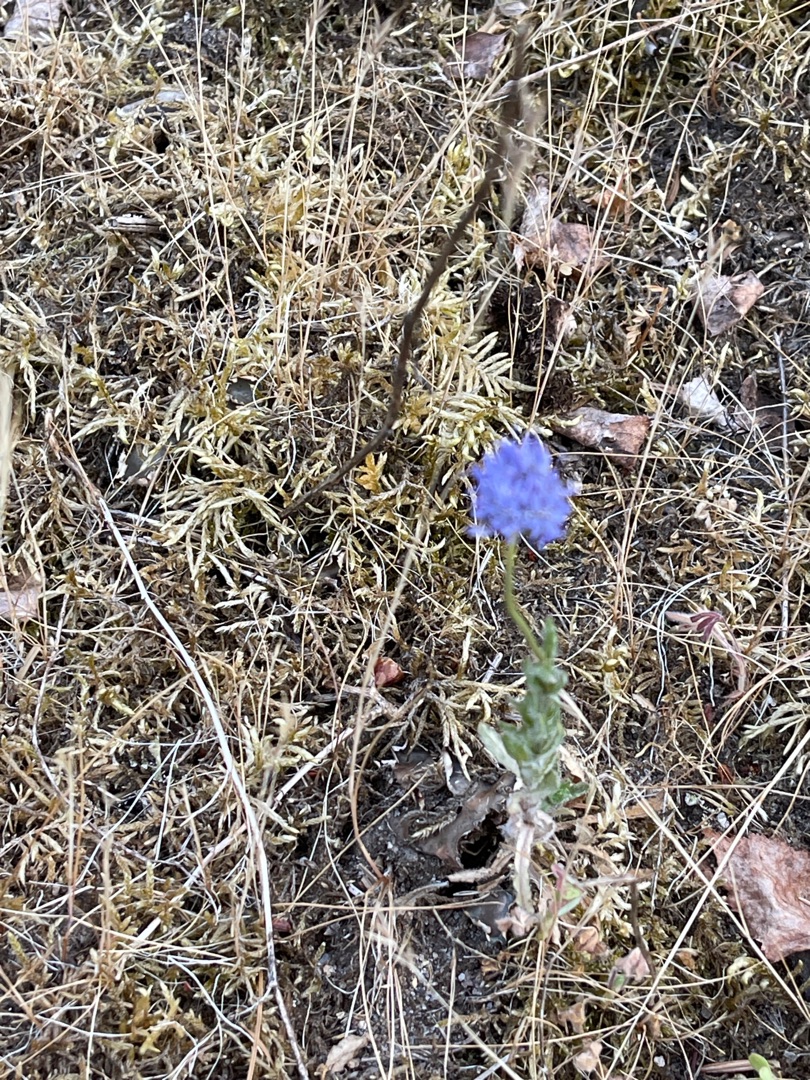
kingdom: Plantae
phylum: Tracheophyta
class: Magnoliopsida
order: Asterales
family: Campanulaceae
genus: Jasione
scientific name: Jasione montana
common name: Blåmunke
